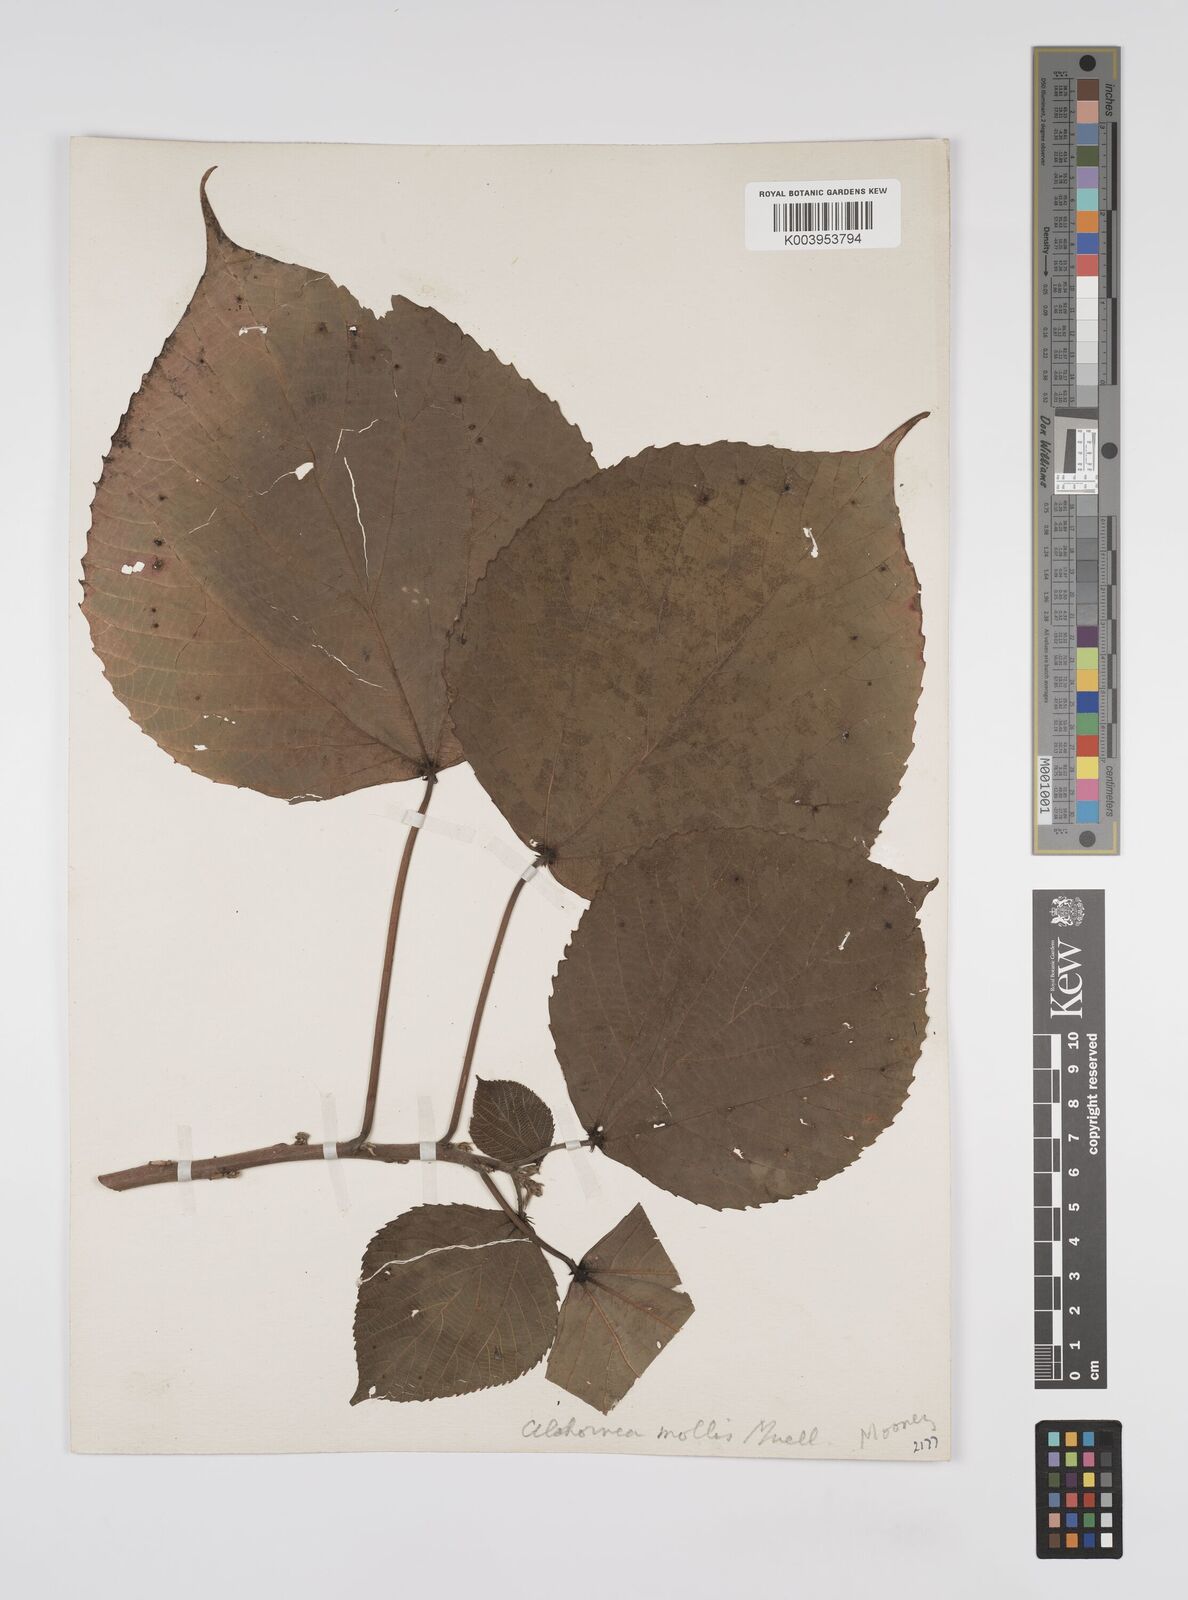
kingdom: Plantae
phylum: Tracheophyta
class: Magnoliopsida
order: Malpighiales
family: Euphorbiaceae
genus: Alchornea
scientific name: Alchornea mollis
